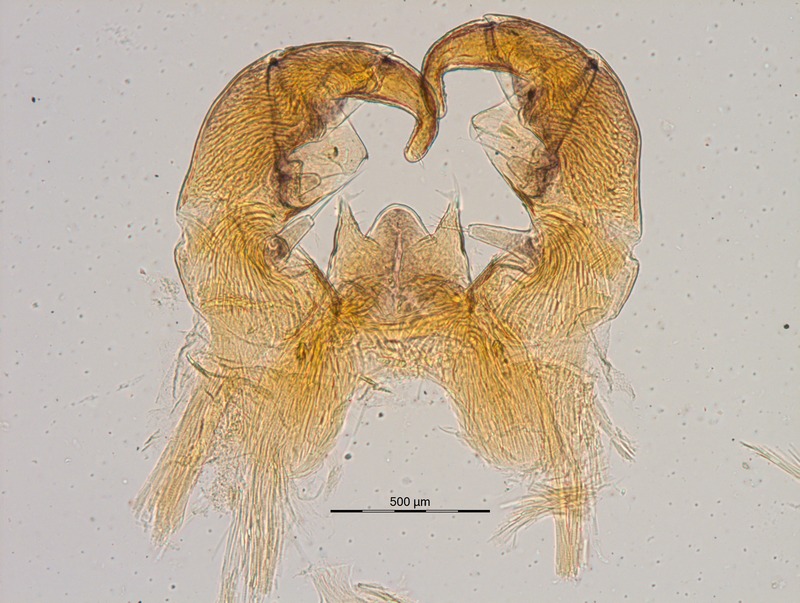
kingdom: Animalia
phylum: Arthropoda
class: Diplopoda
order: Glomerida
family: Glomeridae
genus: Glomeris
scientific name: Glomeris helvetica
